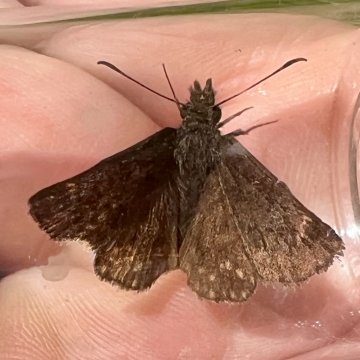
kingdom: Animalia
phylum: Arthropoda
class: Insecta
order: Lepidoptera
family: Hesperiidae
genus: Erynnis
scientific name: Erynnis icelus
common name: Dreamy Duskywing
